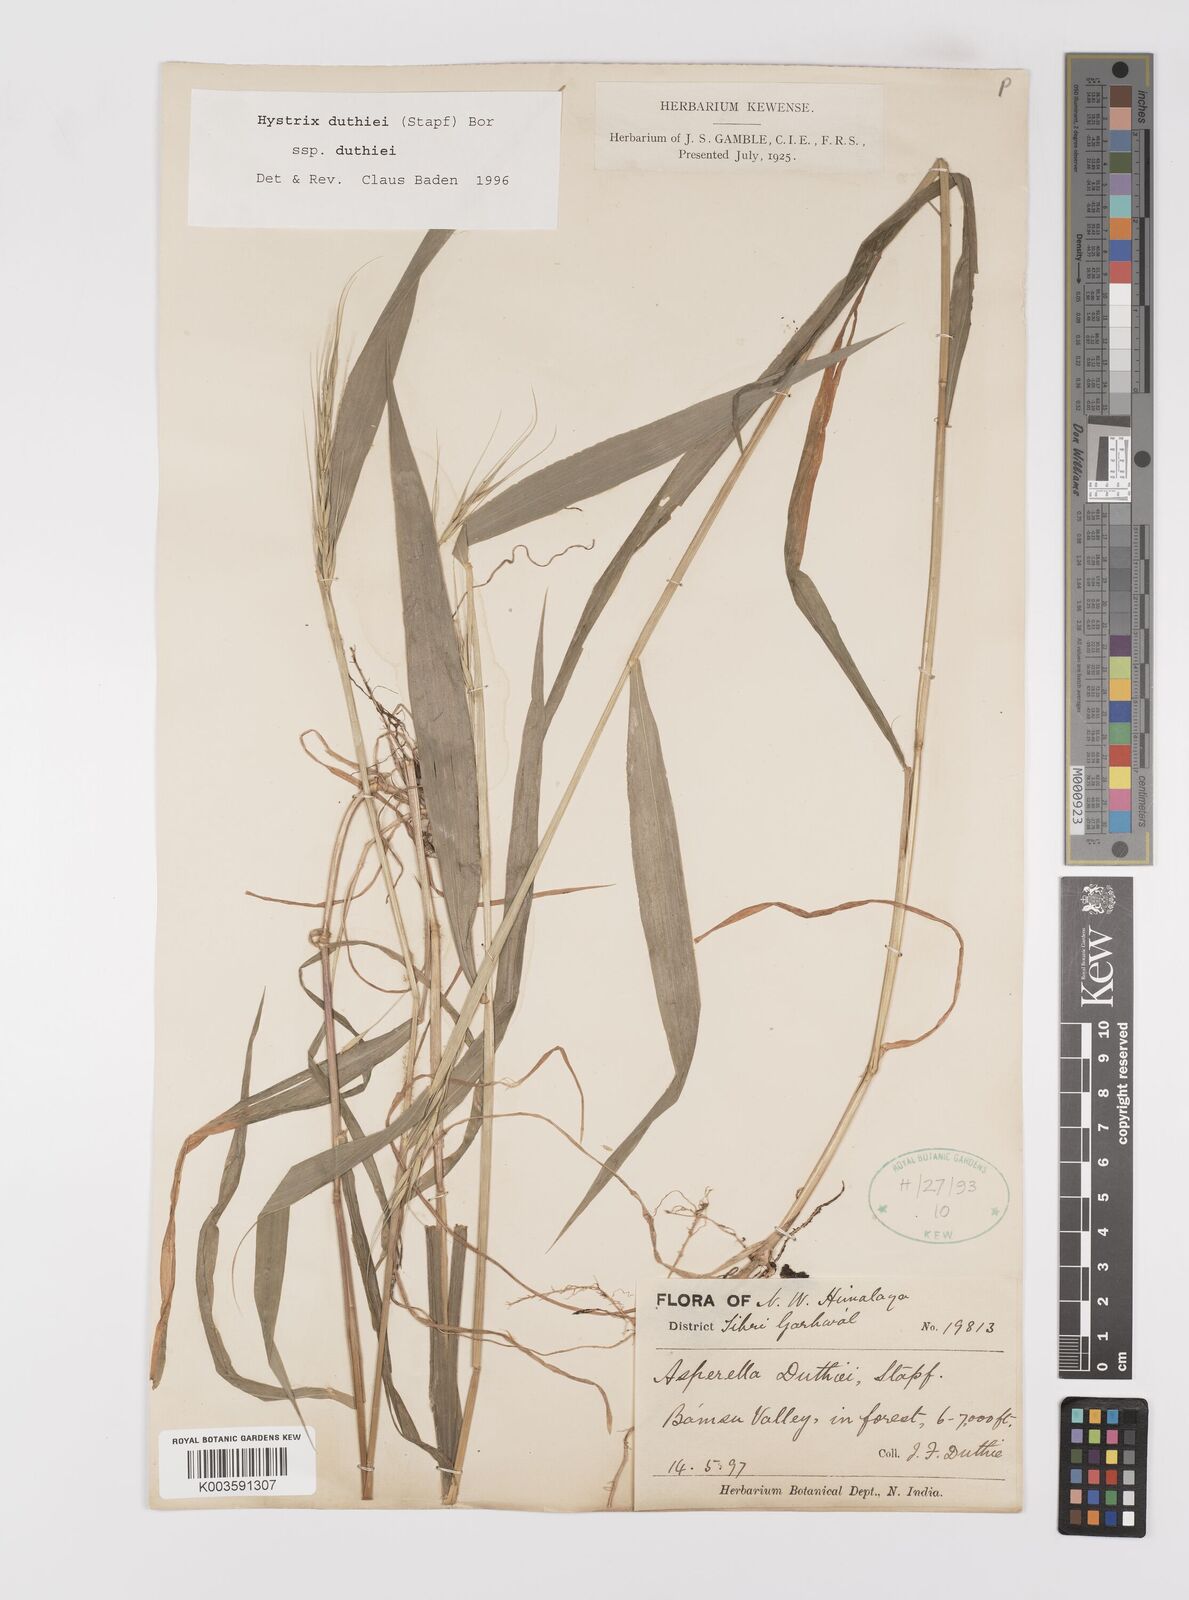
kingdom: Plantae
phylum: Tracheophyta
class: Liliopsida
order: Poales
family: Poaceae
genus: Leymus
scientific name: Leymus duthiei
